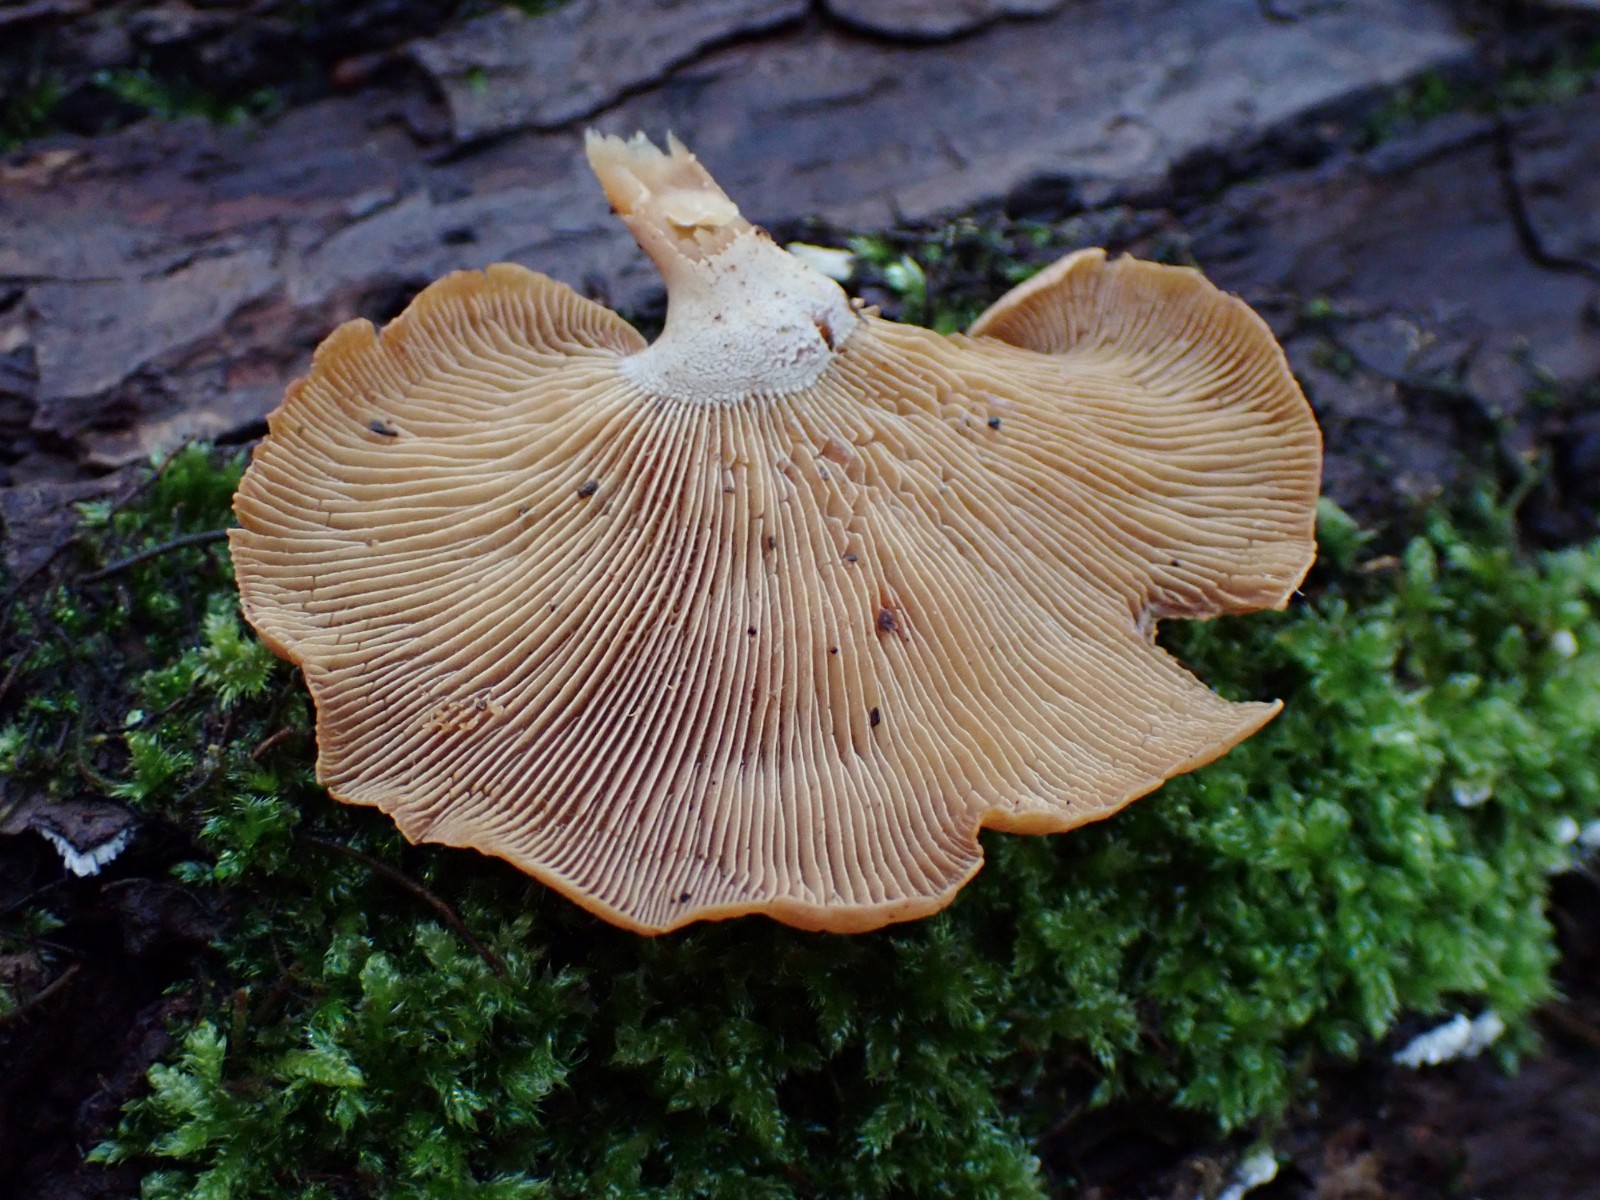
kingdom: Fungi
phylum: Basidiomycota
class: Agaricomycetes
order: Agaricales
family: Mycenaceae
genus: Panellus
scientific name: Panellus stipticus
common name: kliddet epaulethat
